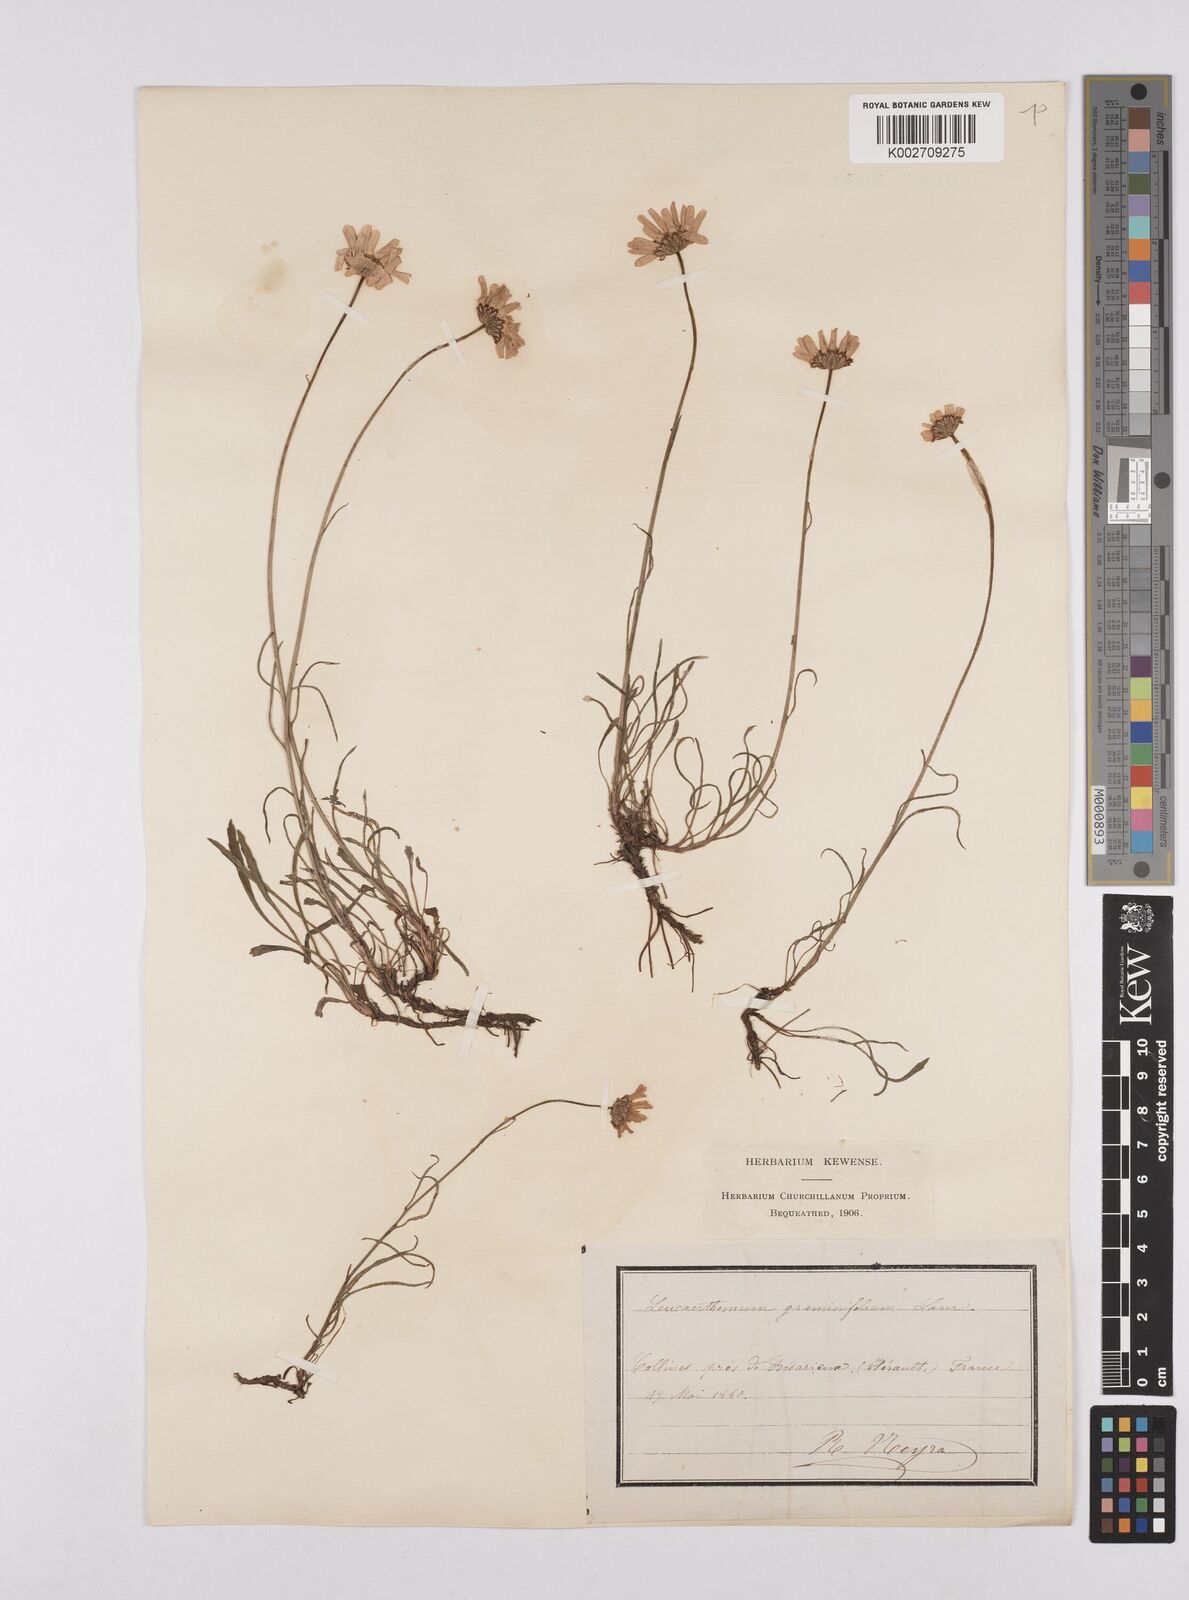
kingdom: Plantae
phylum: Tracheophyta
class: Magnoliopsida
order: Asterales
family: Asteraceae
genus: Leucanthemum
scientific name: Leucanthemum chloroticum
